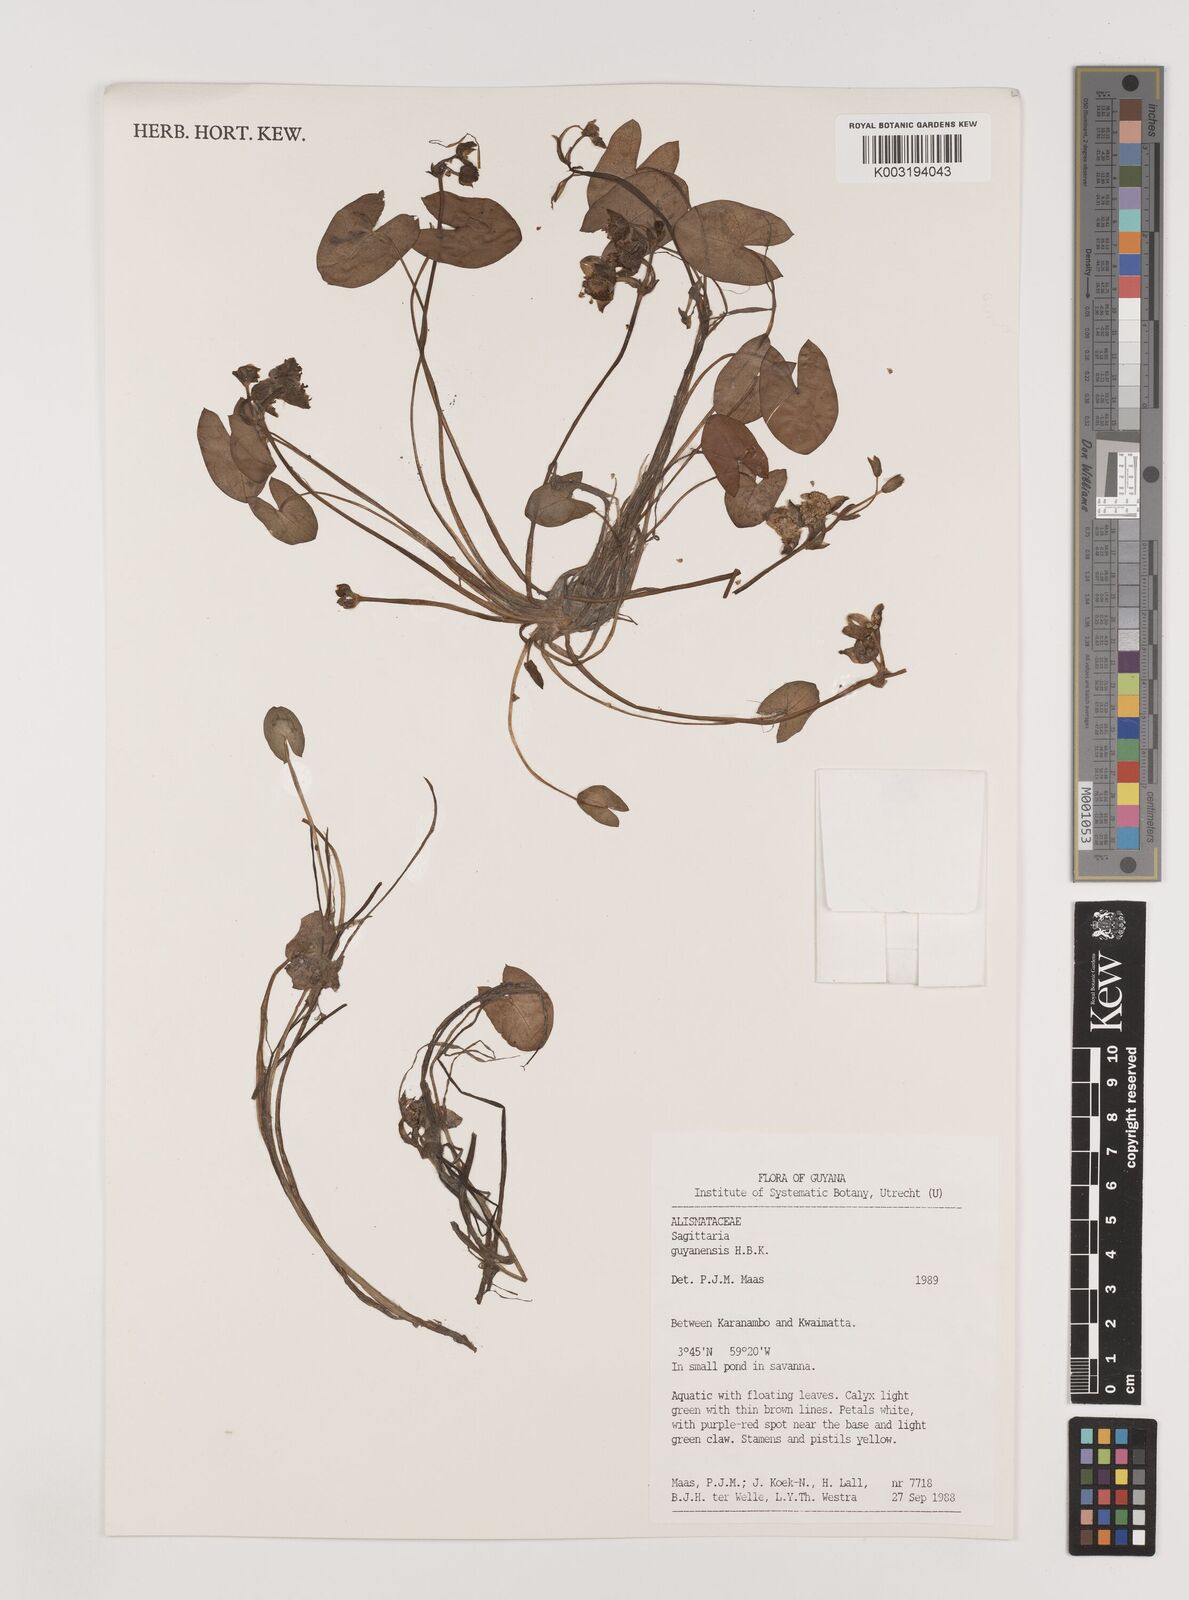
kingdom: Plantae
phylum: Tracheophyta
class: Liliopsida
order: Alismatales
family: Alismataceae
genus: Sagittaria
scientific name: Sagittaria guayanensis
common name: Guyanese arrowhead
